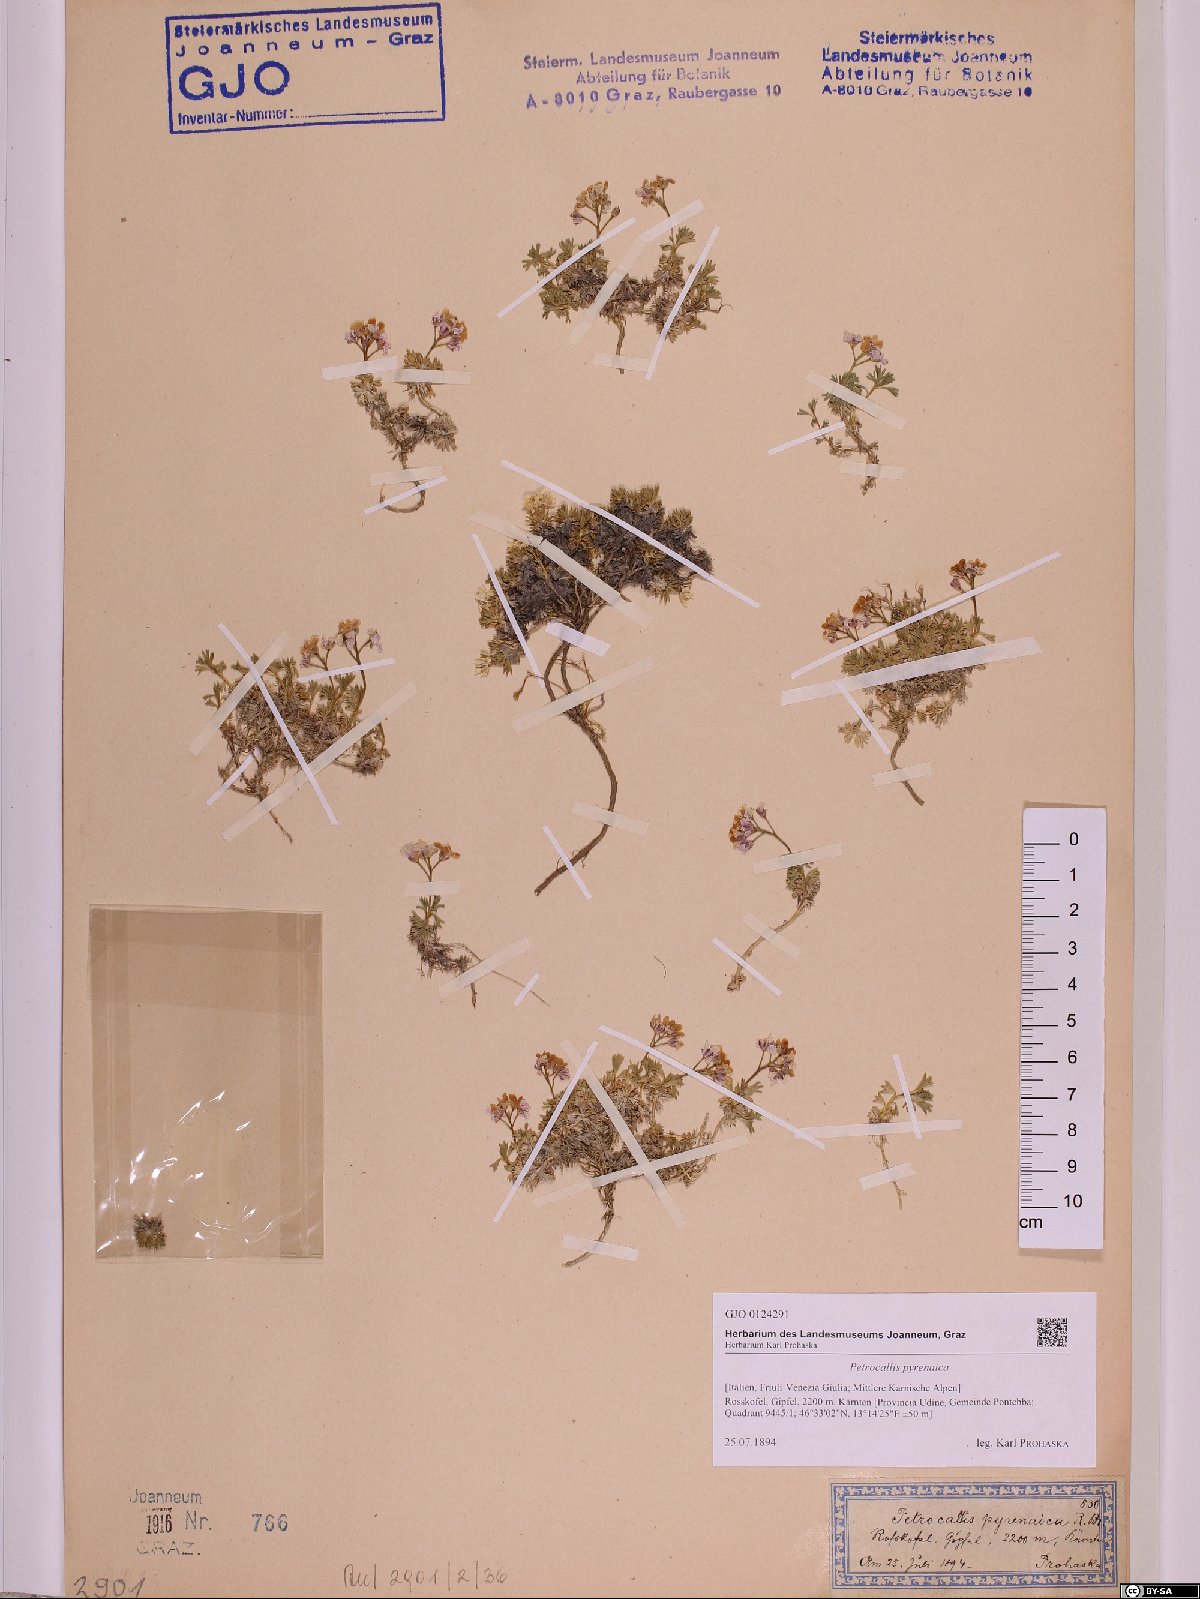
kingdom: Plantae
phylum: Tracheophyta
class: Magnoliopsida
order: Brassicales
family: Brassicaceae
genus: Petrocallis
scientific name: Petrocallis pyrenaica
